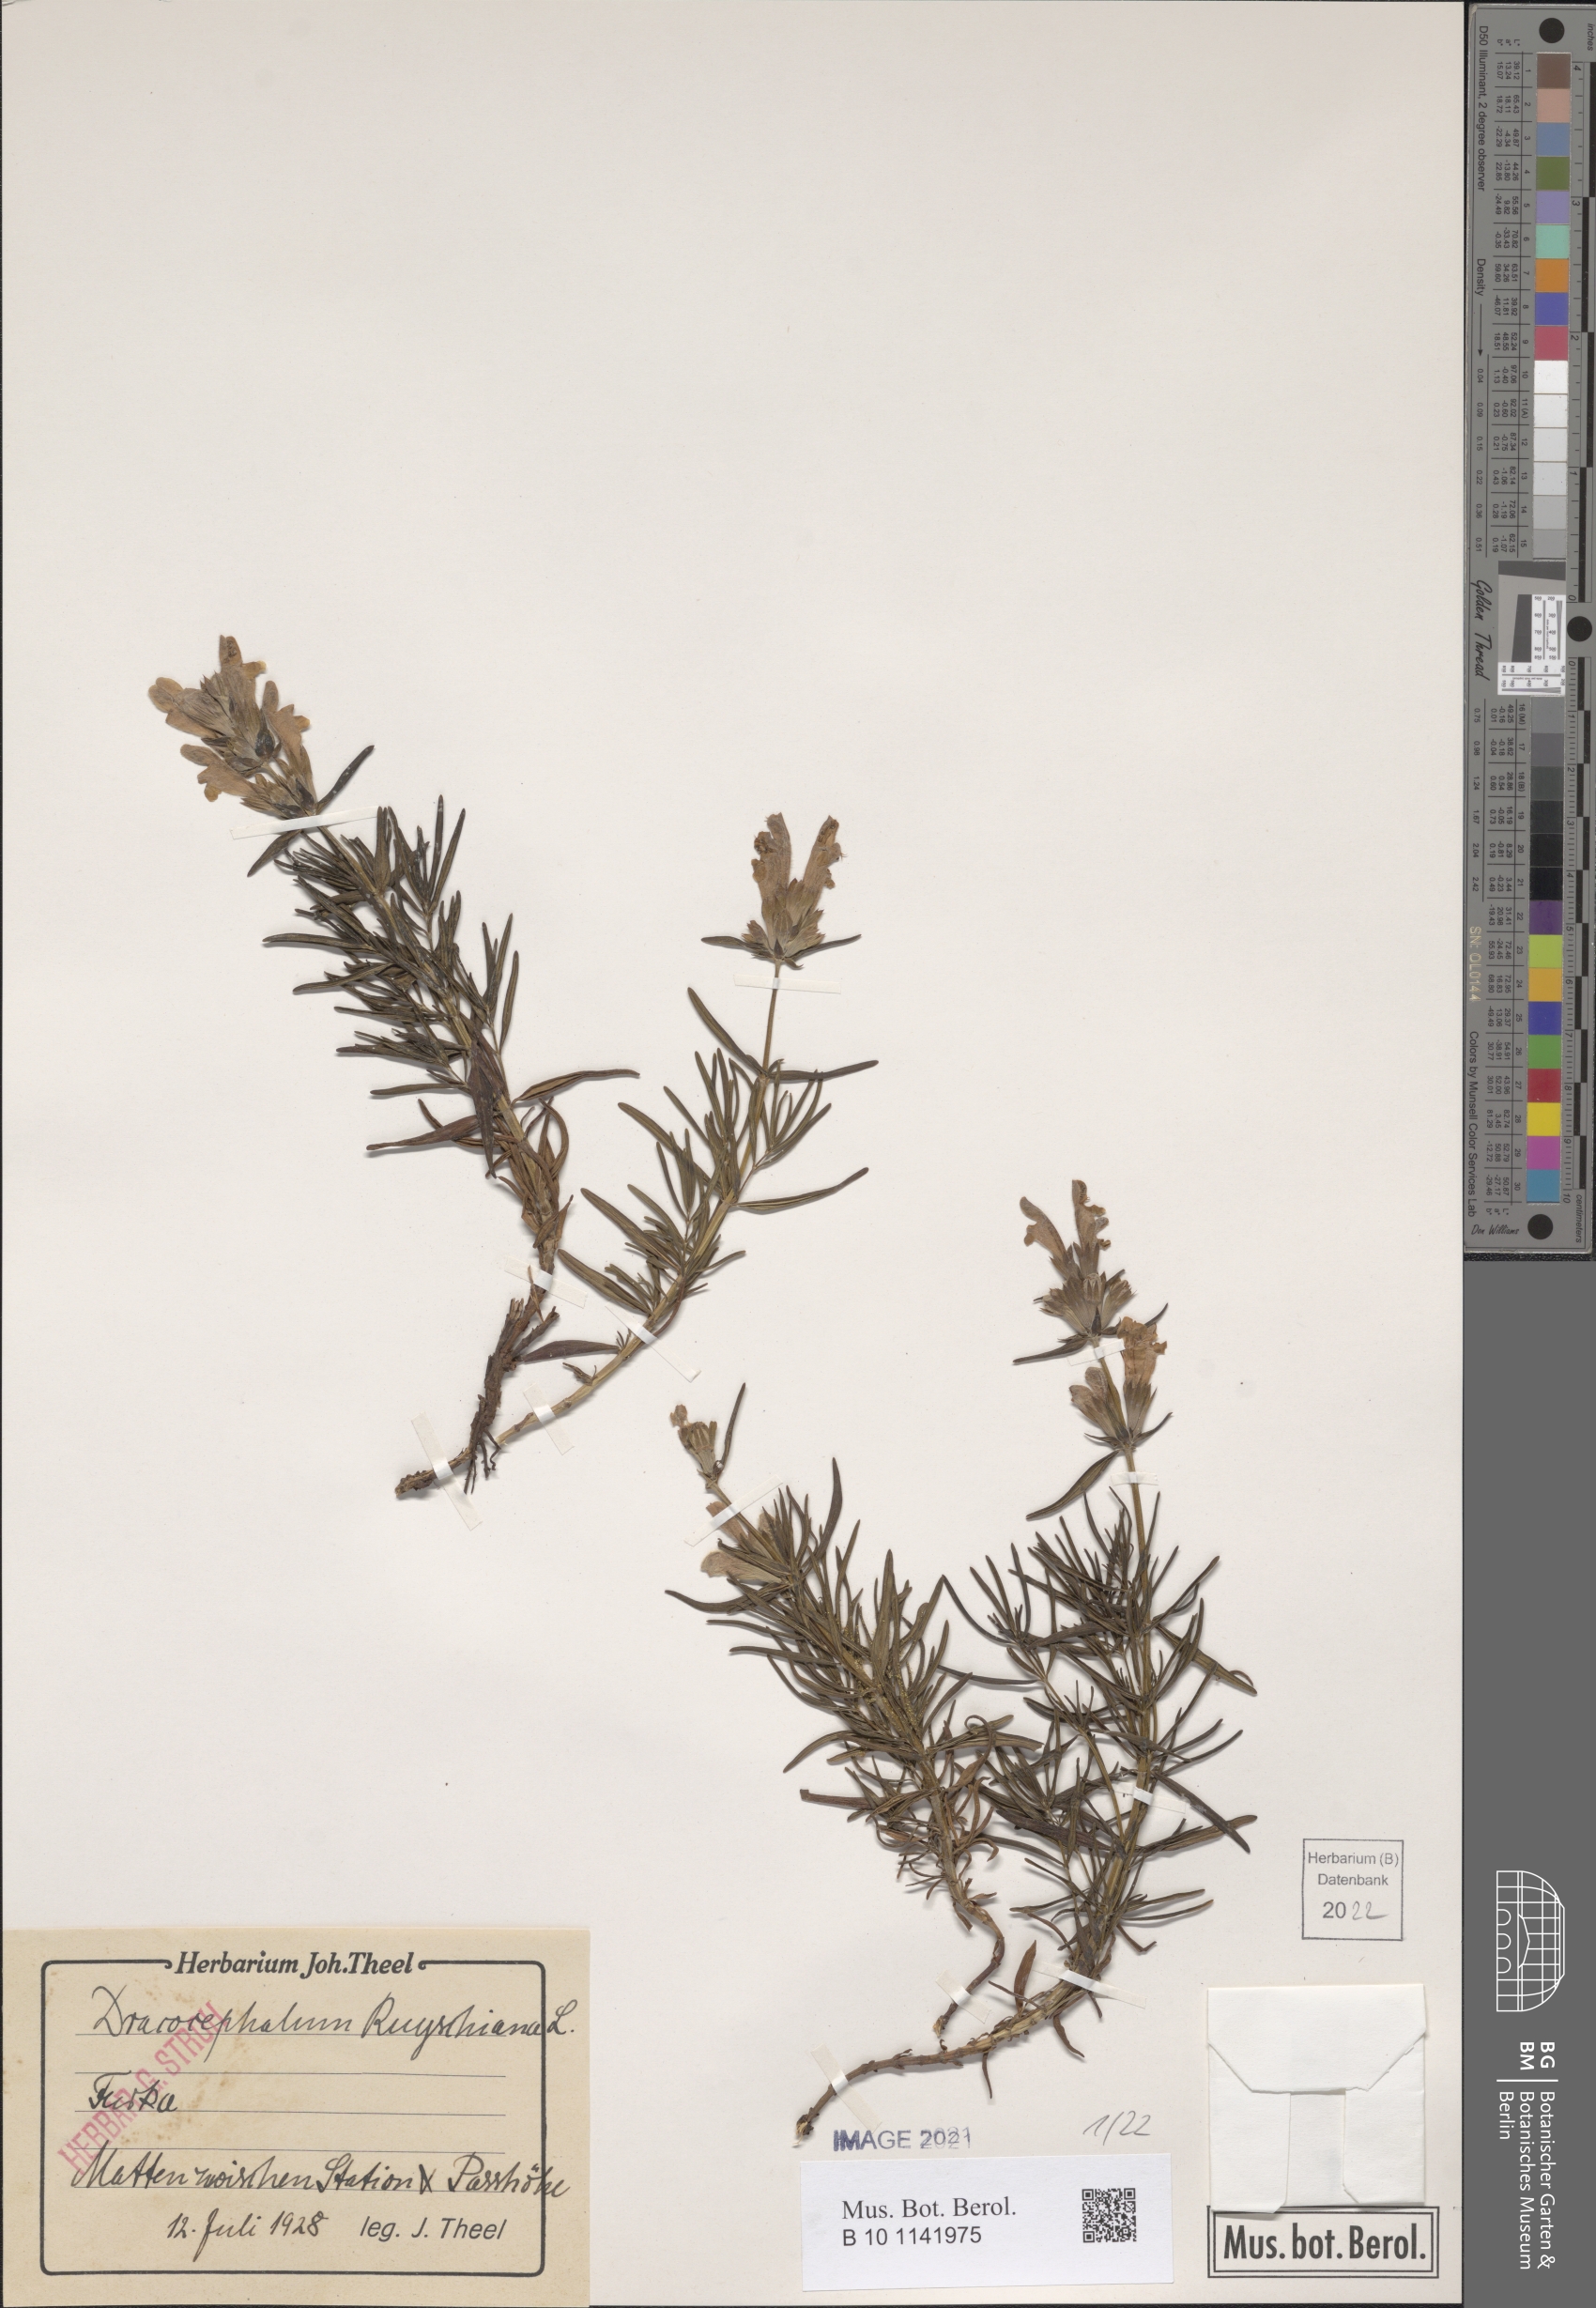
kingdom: Plantae
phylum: Tracheophyta
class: Magnoliopsida
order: Lamiales
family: Lamiaceae
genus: Dracocephalum
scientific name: Dracocephalum ruyschiana
